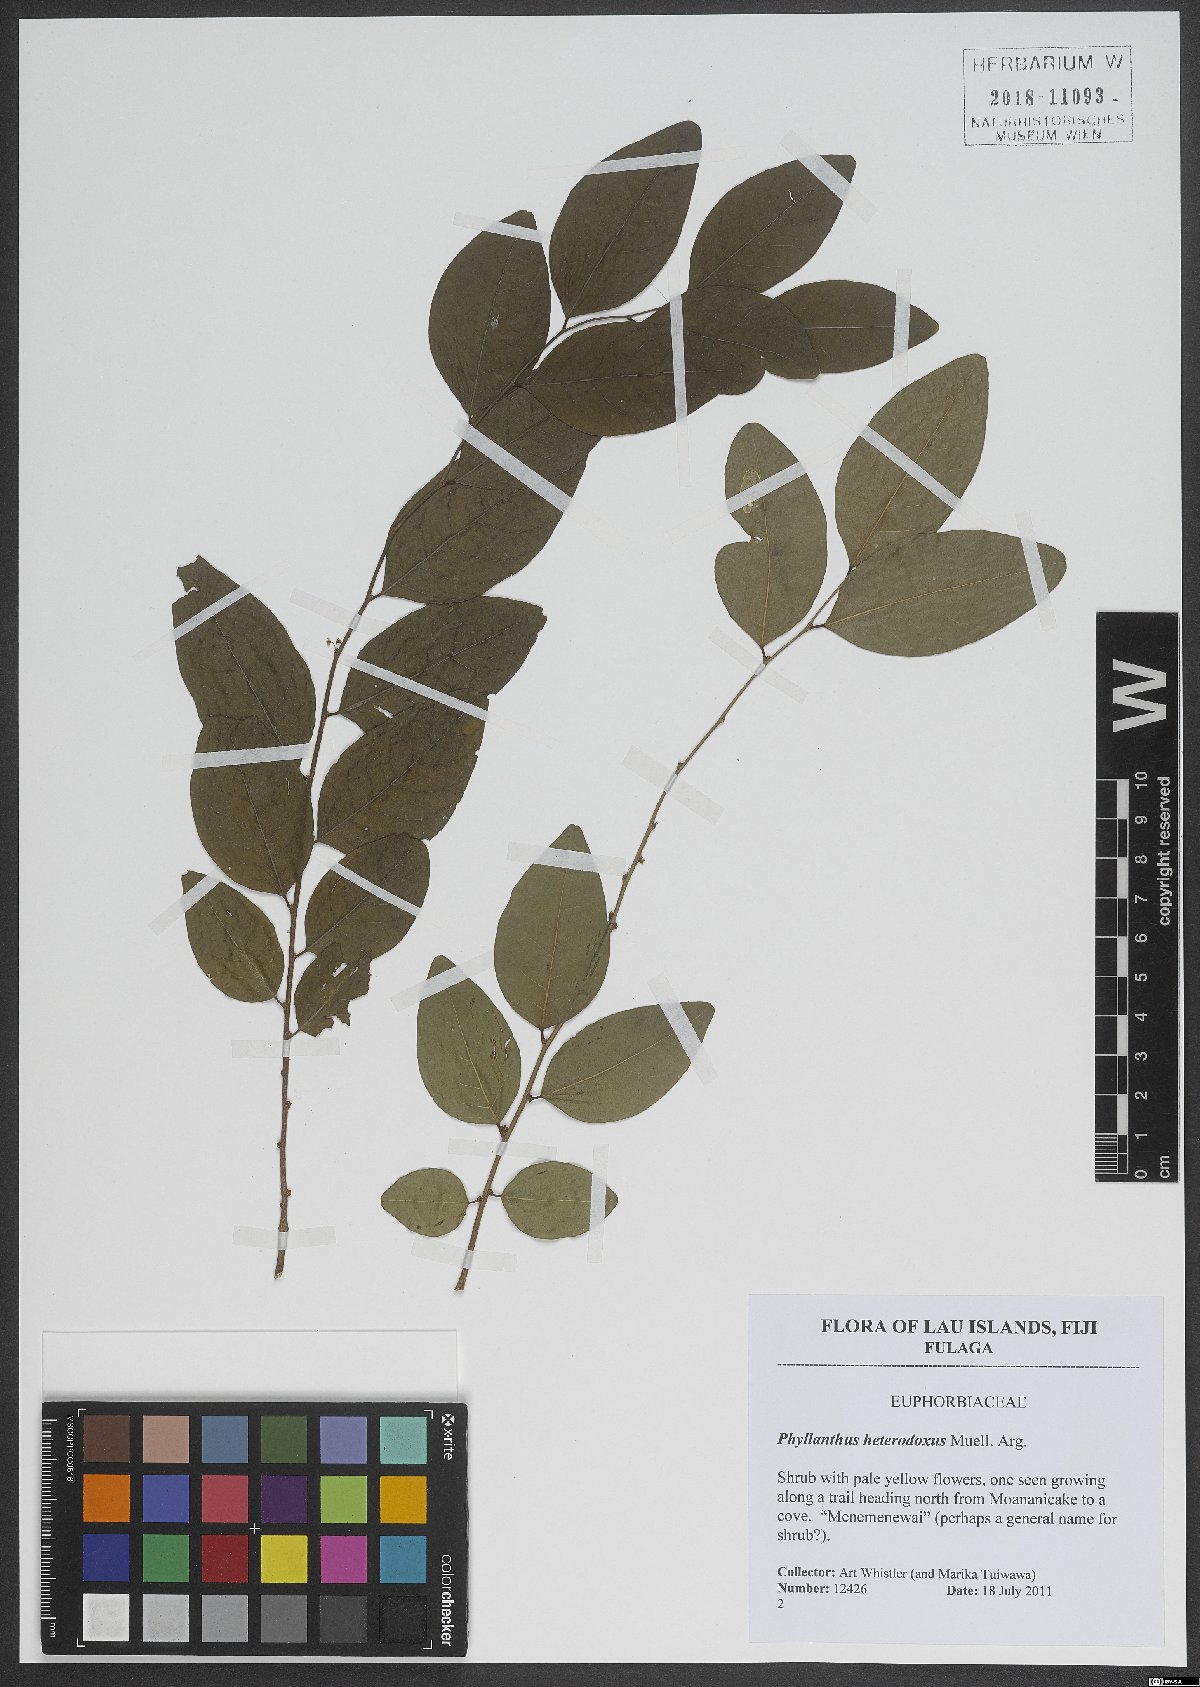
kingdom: Plantae
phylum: Tracheophyta
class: Magnoliopsida
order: Malpighiales
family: Phyllanthaceae
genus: Glochidion
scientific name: Glochidion heterodoxum
